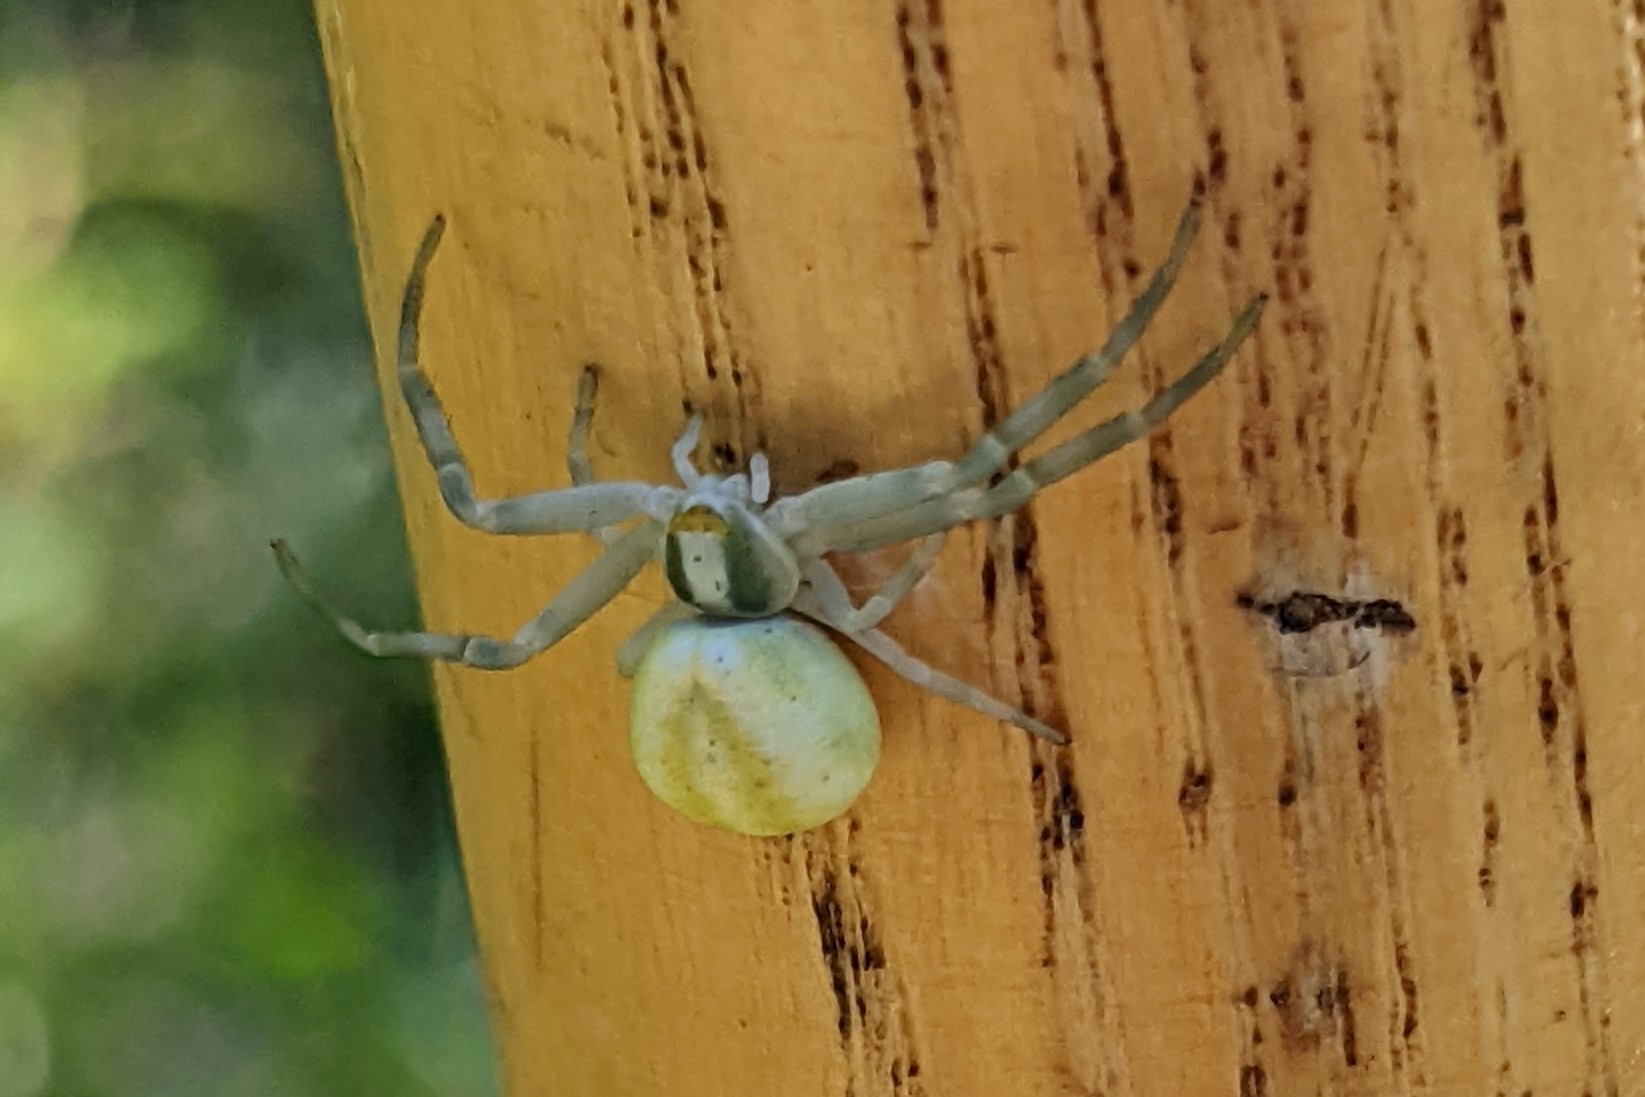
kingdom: Animalia
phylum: Arthropoda
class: Arachnida
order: Araneae
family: Thomisidae
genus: Misumena
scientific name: Misumena vatia
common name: Kamæleonedderkop
